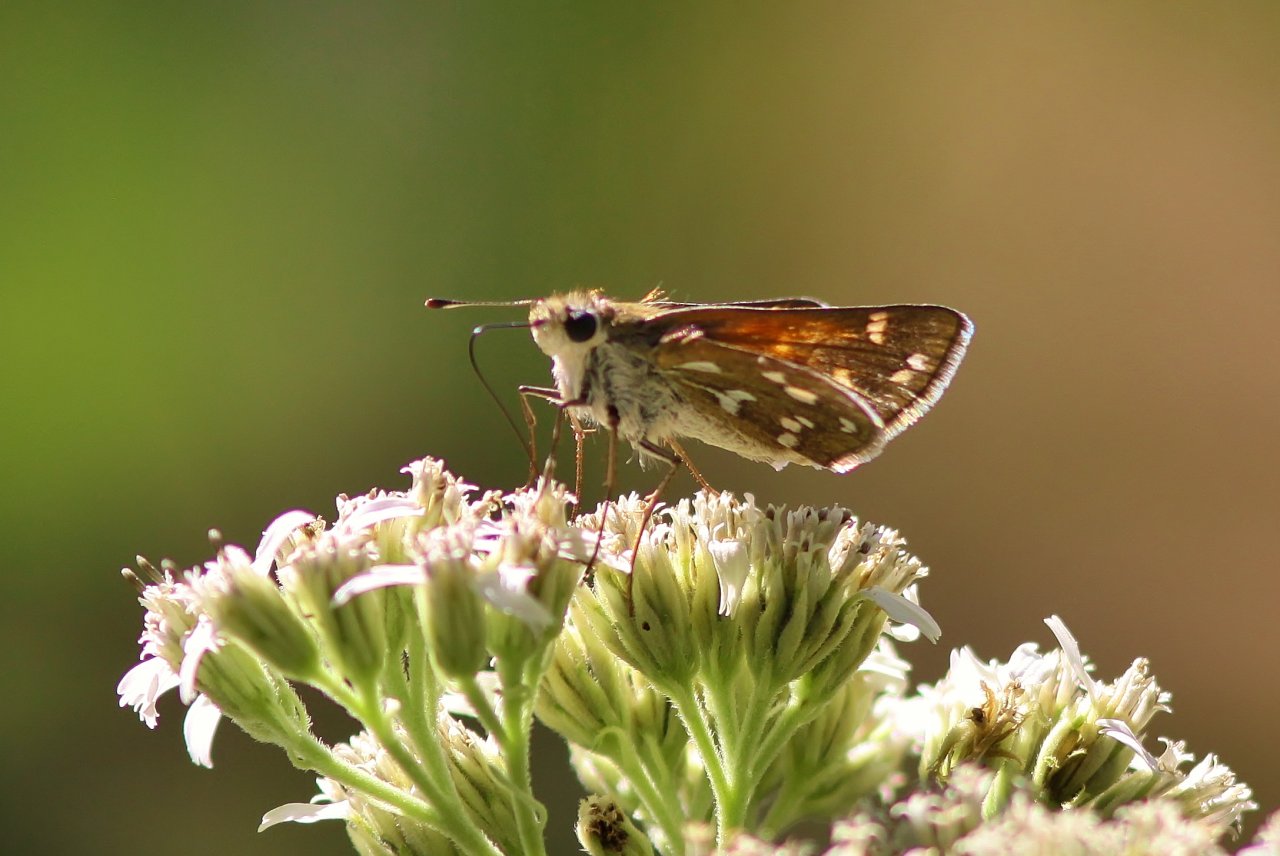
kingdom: Animalia
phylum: Arthropoda
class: Insecta
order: Lepidoptera
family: Hesperiidae
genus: Hesperia
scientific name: Hesperia viridis
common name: Green Skipper
